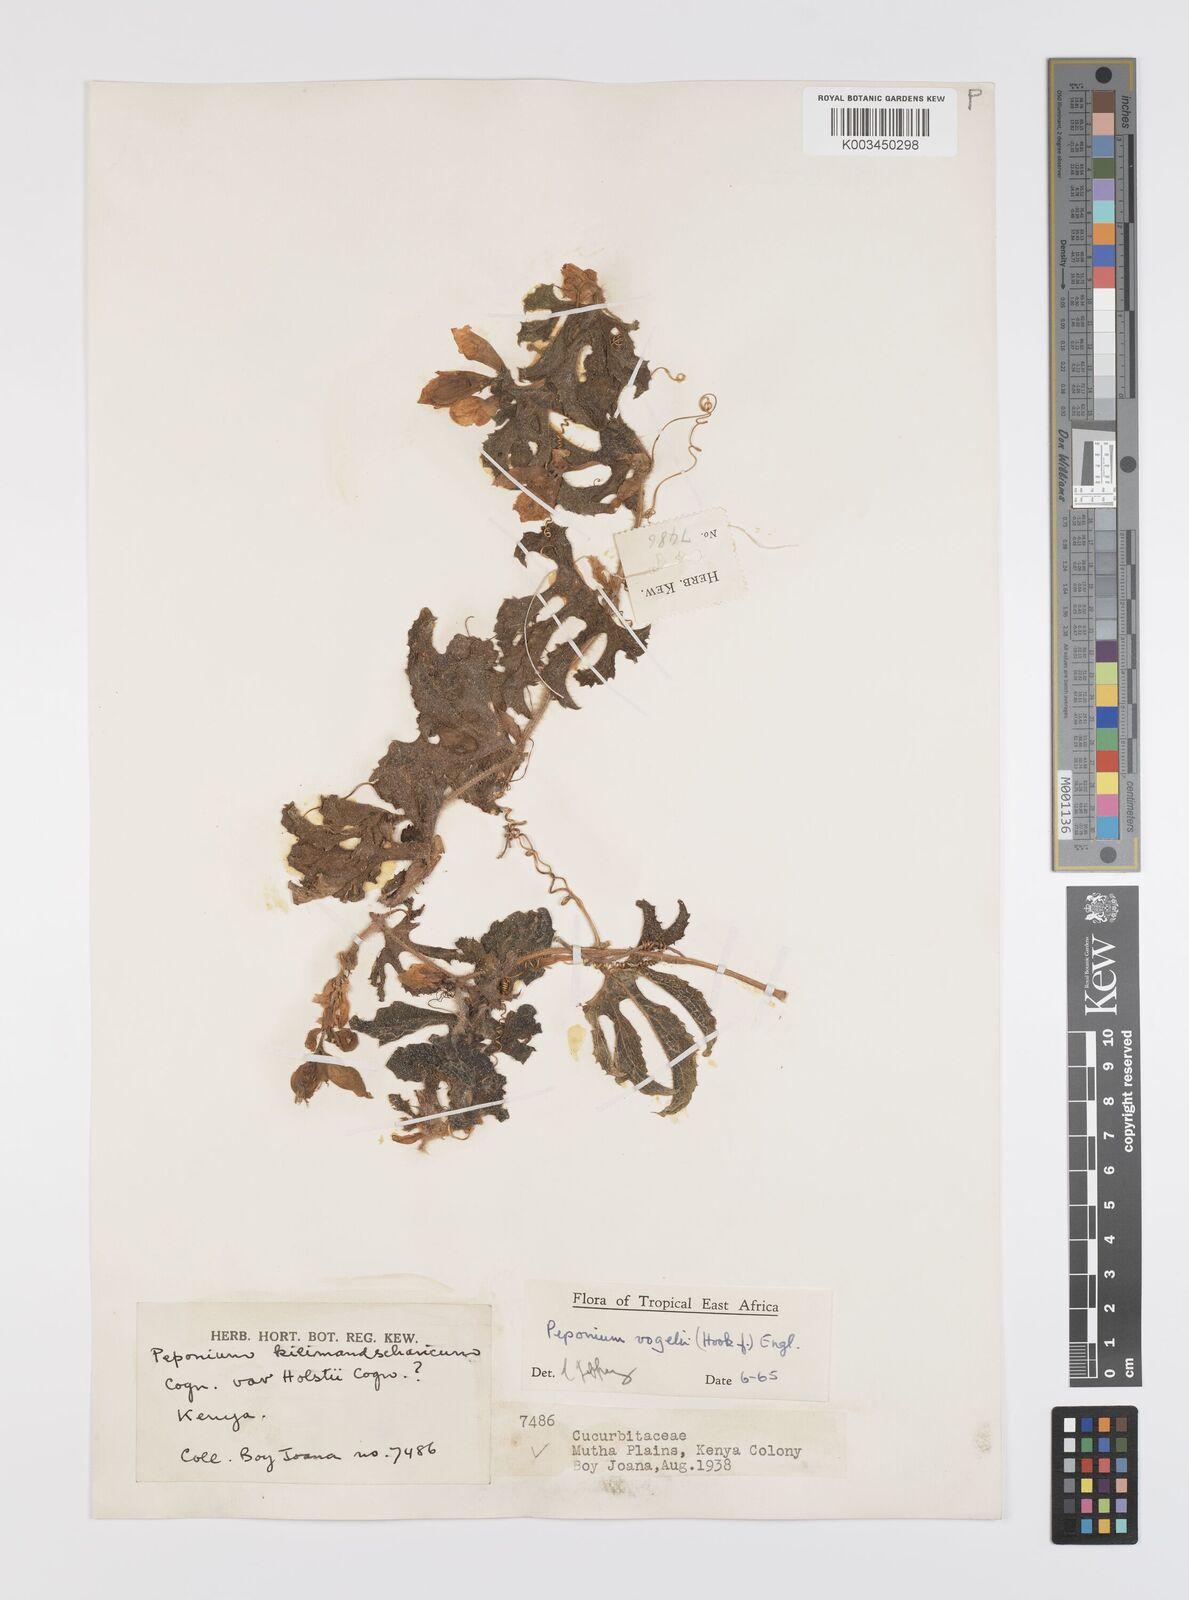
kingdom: Plantae
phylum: Tracheophyta
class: Magnoliopsida
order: Cucurbitales
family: Cucurbitaceae
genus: Peponium
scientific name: Peponium vogelii
